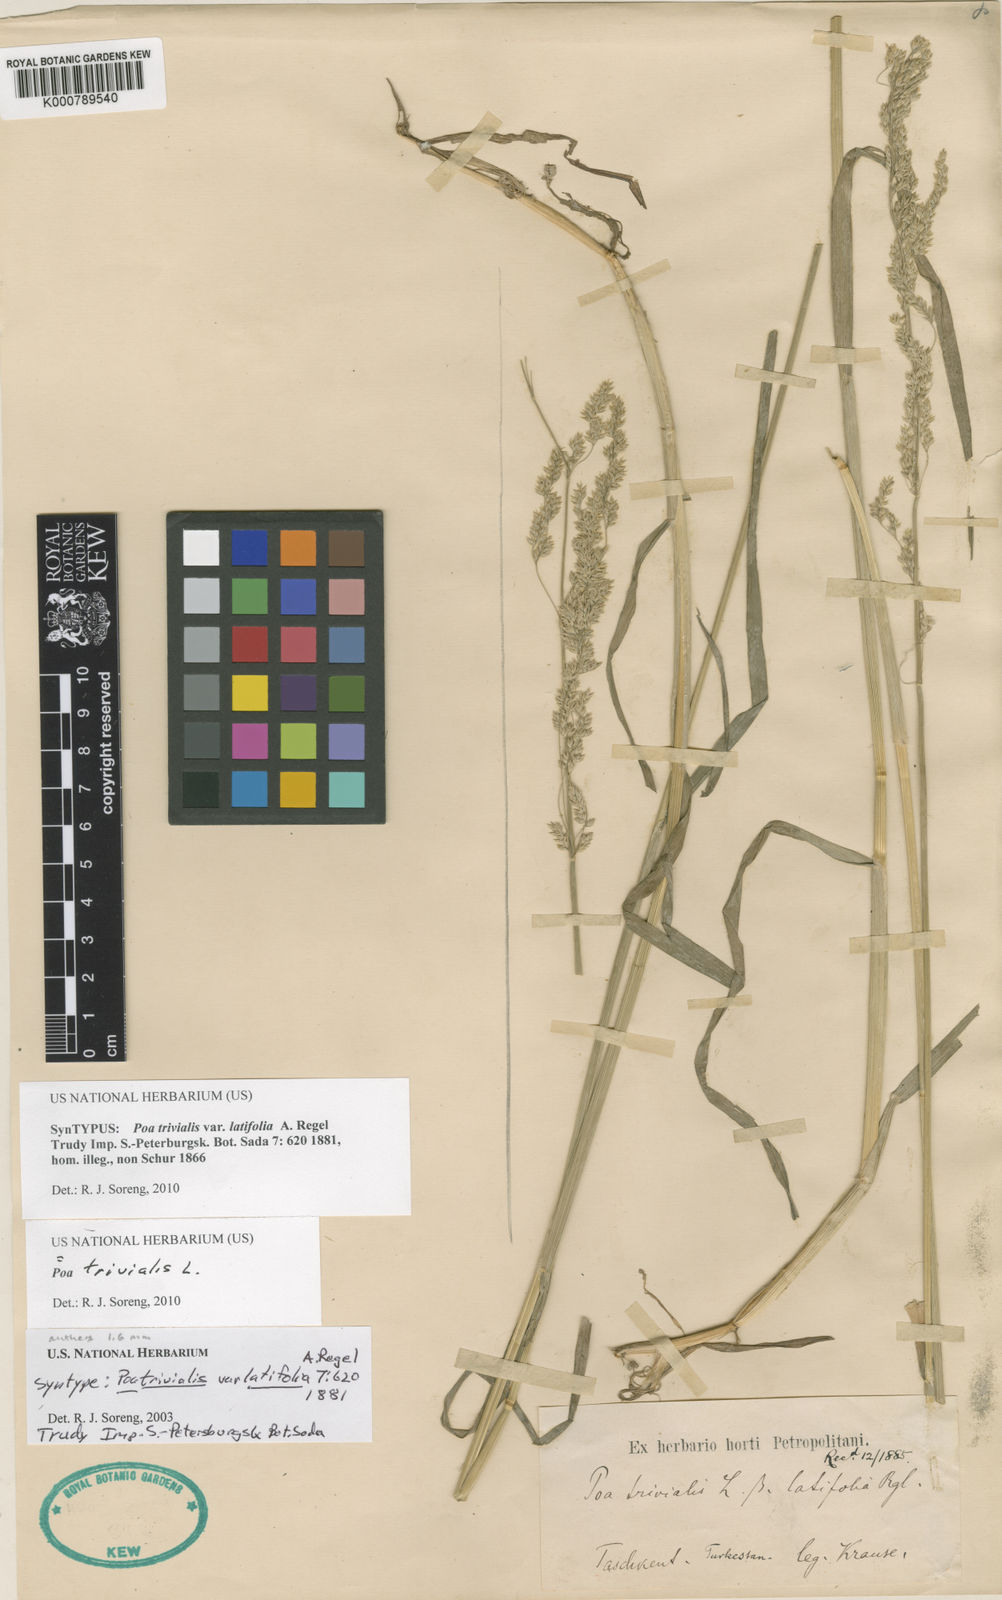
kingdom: Plantae
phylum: Tracheophyta
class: Liliopsida
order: Poales
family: Poaceae
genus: Poa
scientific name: Poa trivialis
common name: Rough bluegrass
